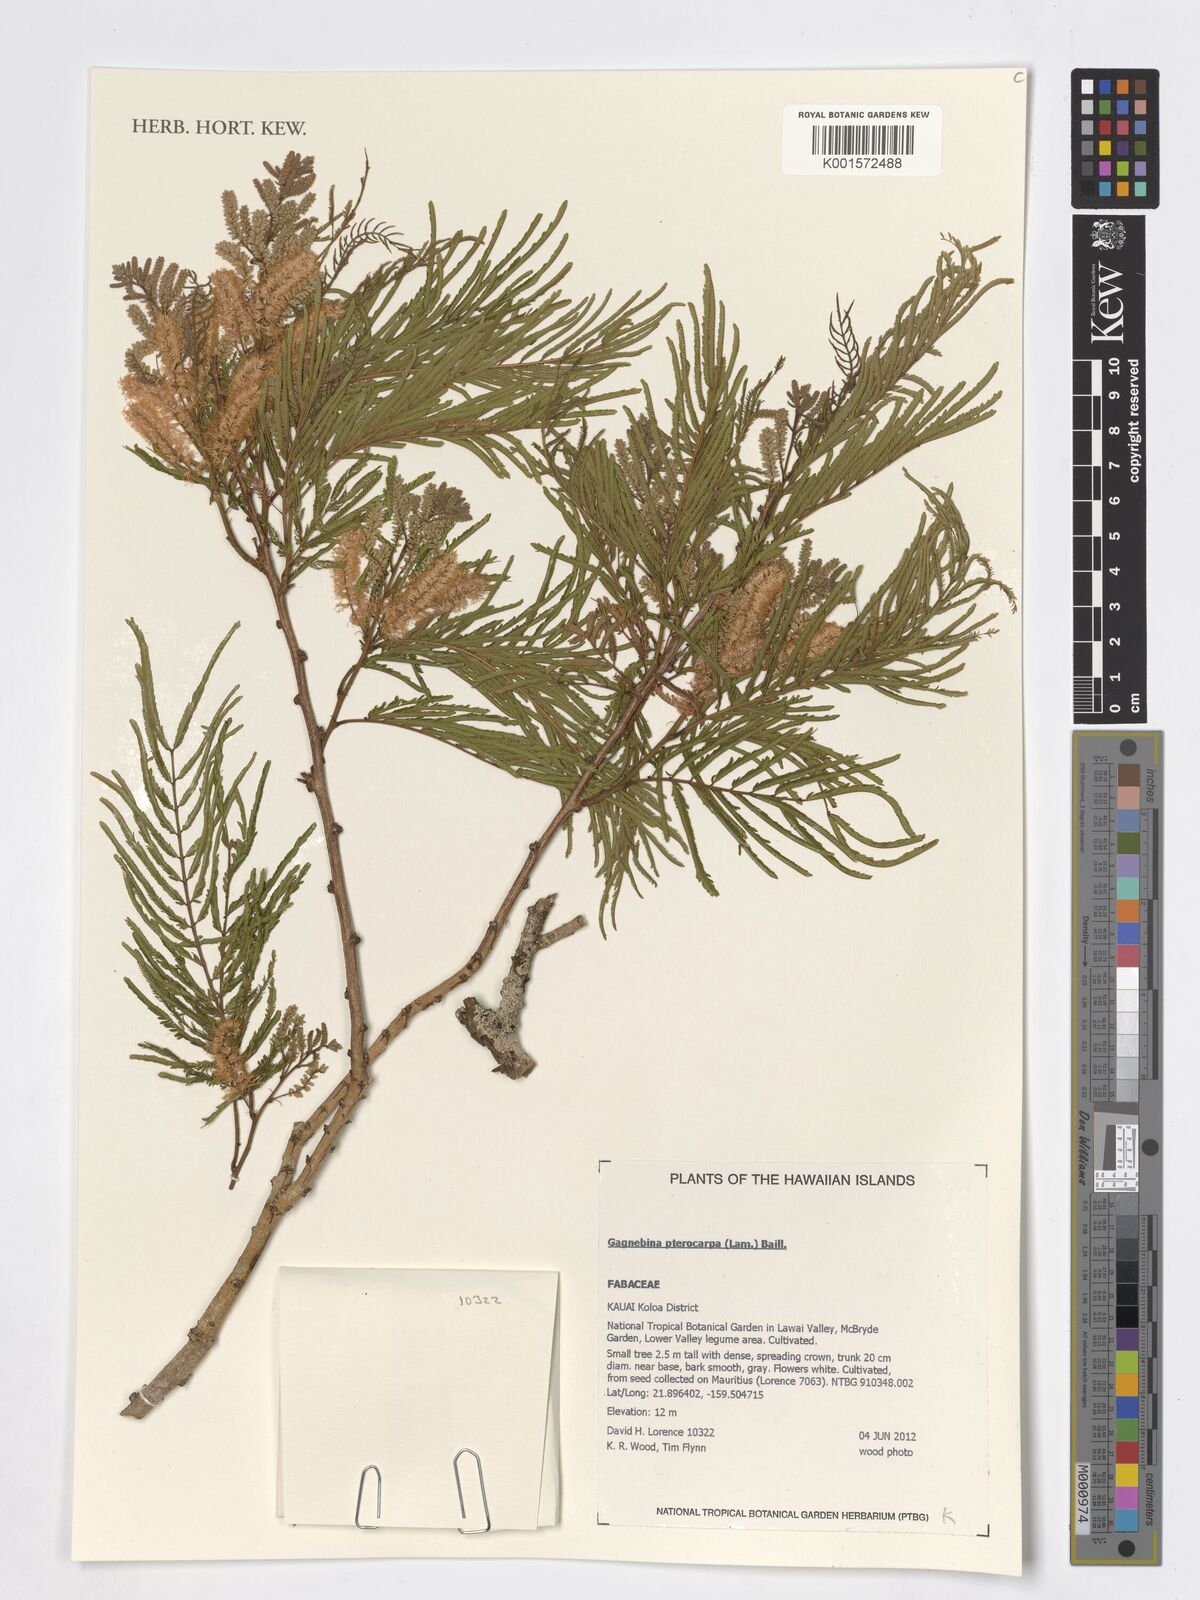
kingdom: Plantae
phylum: Tracheophyta
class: Magnoliopsida
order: Fabales
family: Fabaceae
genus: Gagnebina
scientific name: Gagnebina pterocarpa
